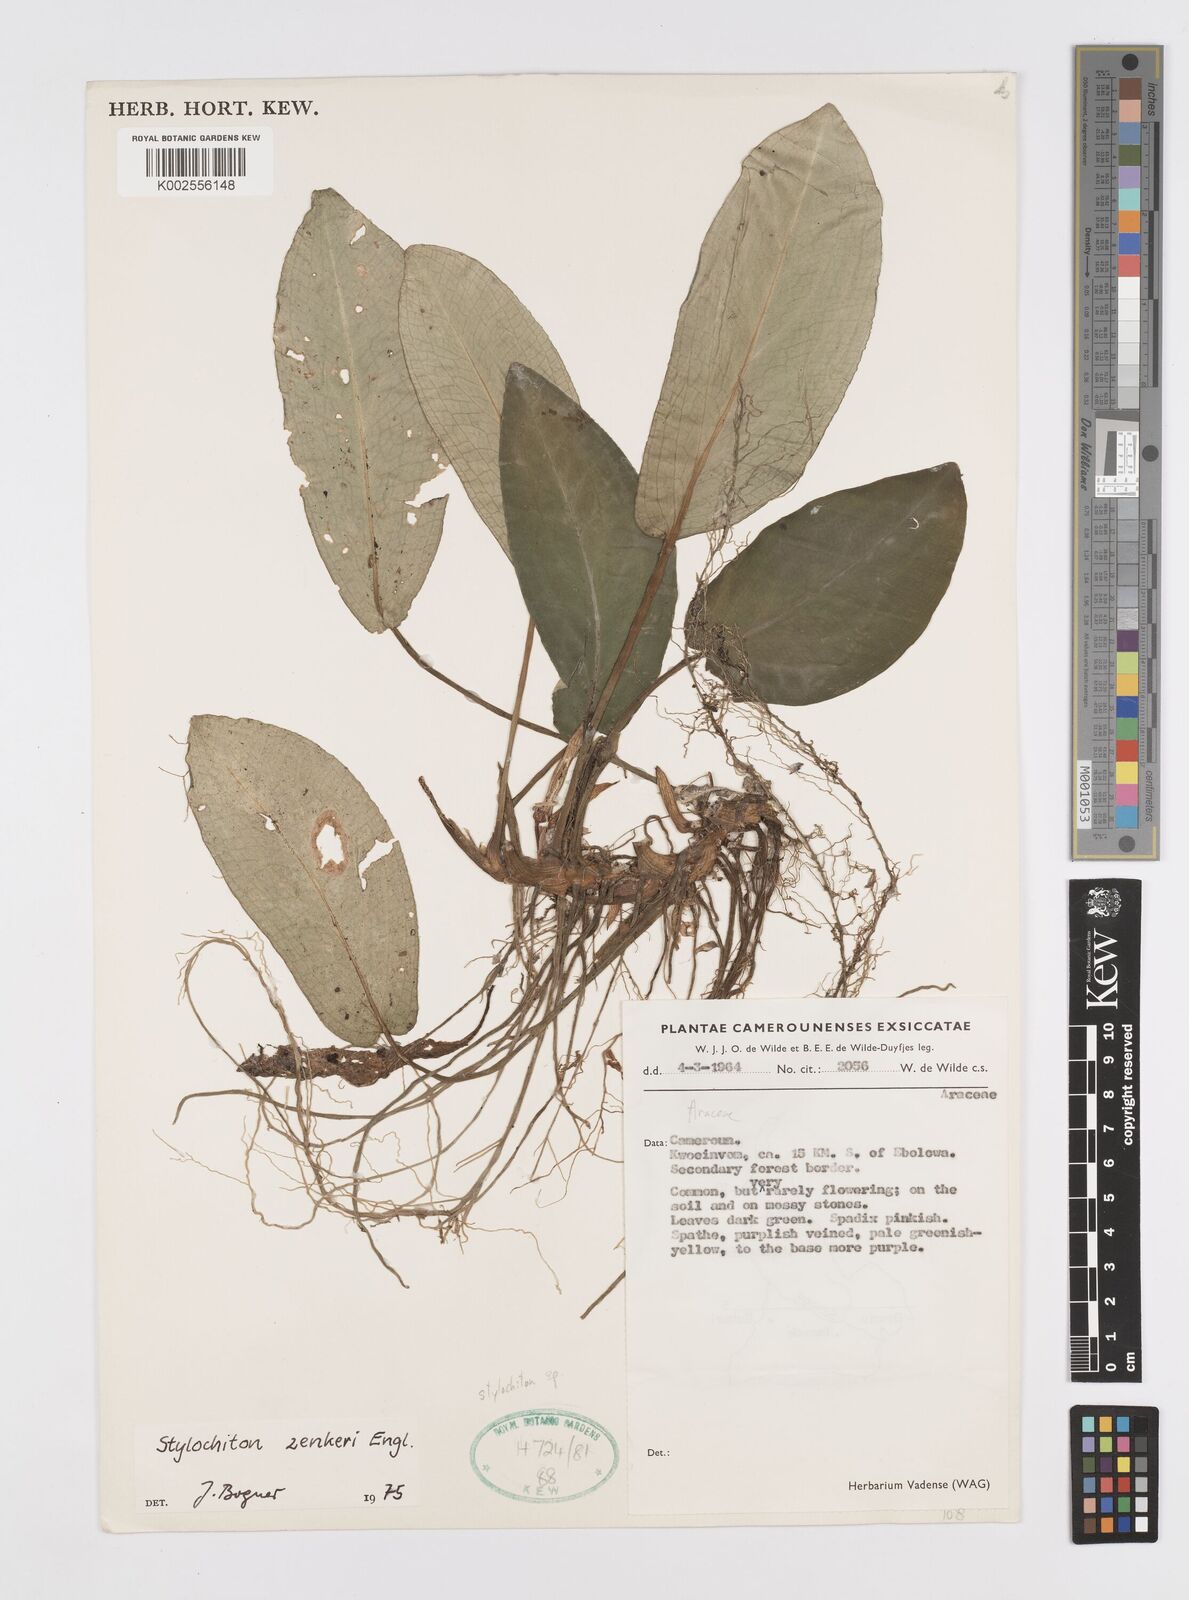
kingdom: Plantae
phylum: Tracheophyta
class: Liliopsida
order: Alismatales
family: Araceae
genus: Stylochaeton
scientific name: Stylochaeton zenkeri
